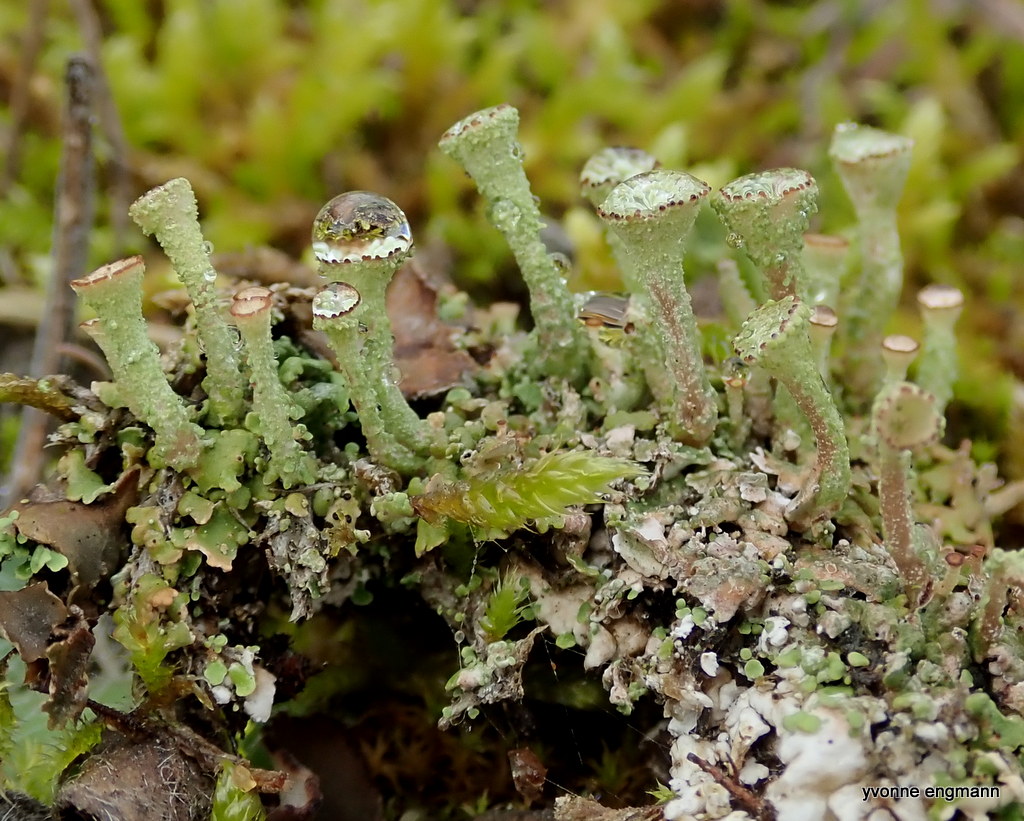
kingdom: Fungi
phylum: Ascomycota
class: Lecanoromycetes
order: Lecanorales
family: Cladoniaceae
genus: Cladonia
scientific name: Cladonia
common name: brungrøn bægerlav
